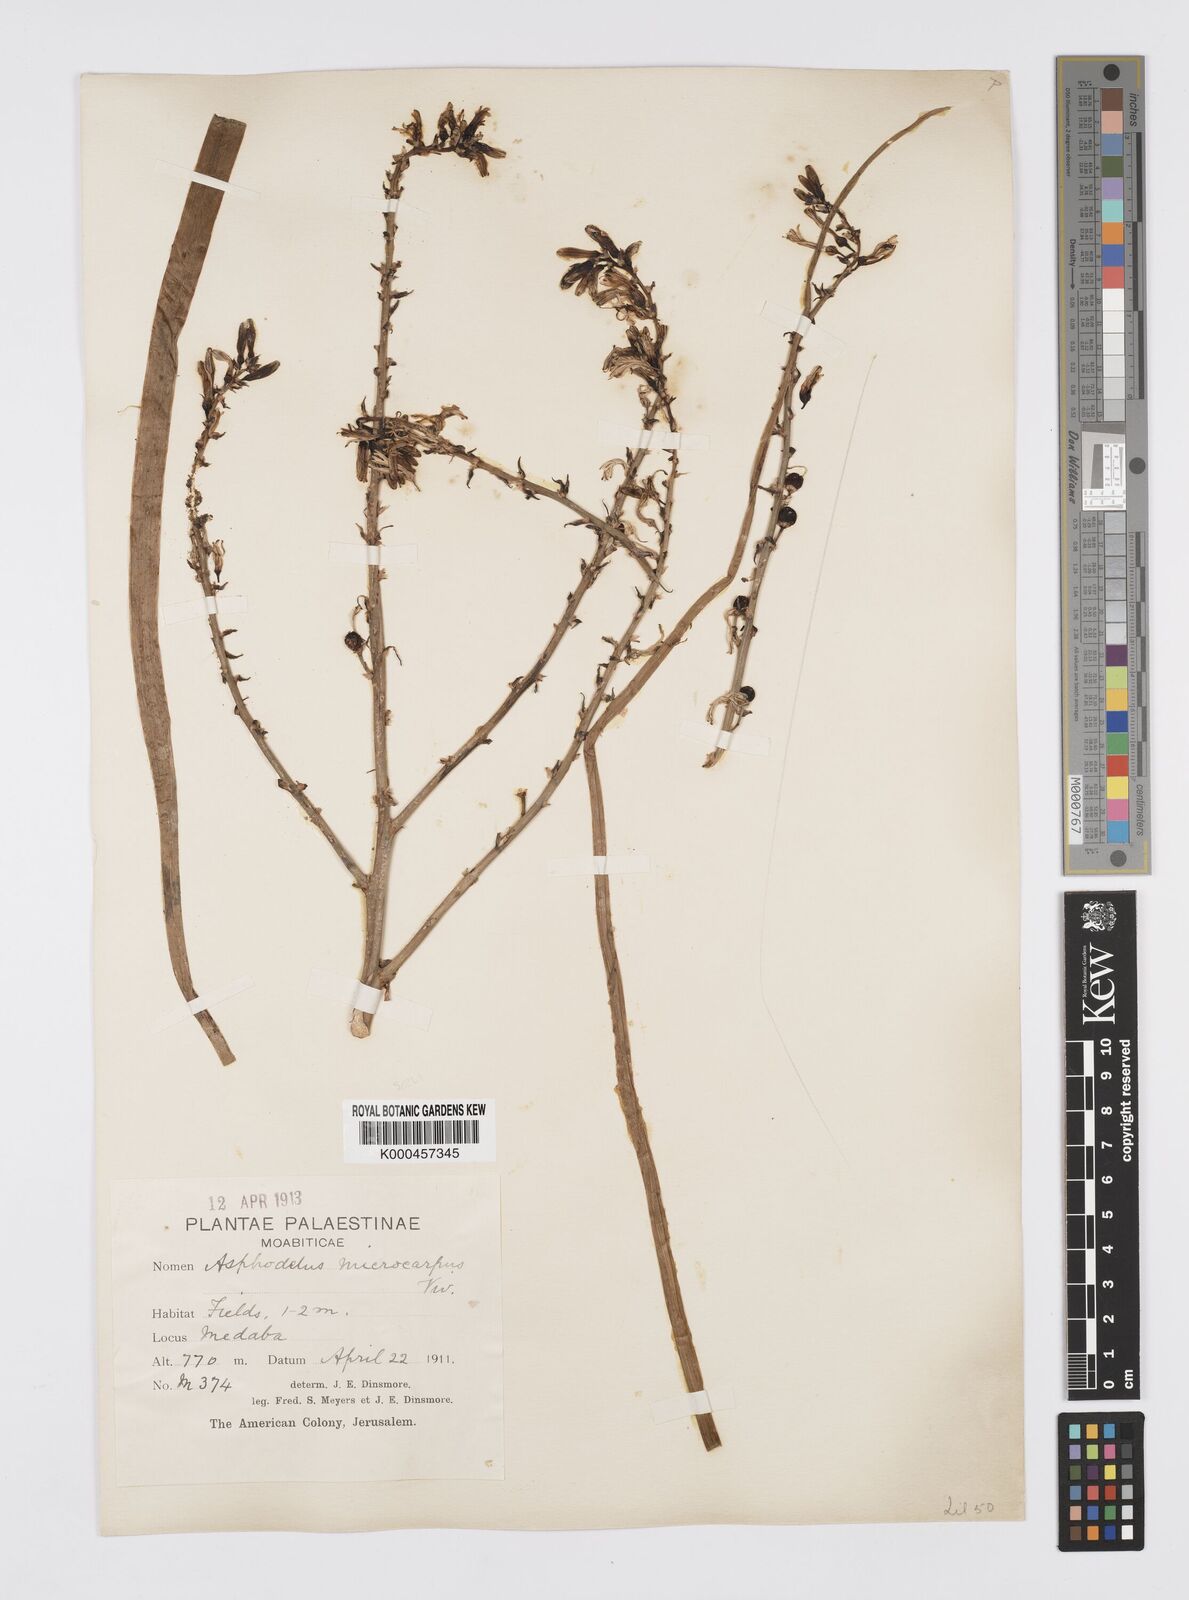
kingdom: Plantae
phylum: Tracheophyta
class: Liliopsida
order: Asparagales
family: Asphodelaceae
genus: Asphodelus
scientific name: Asphodelus aestivus
